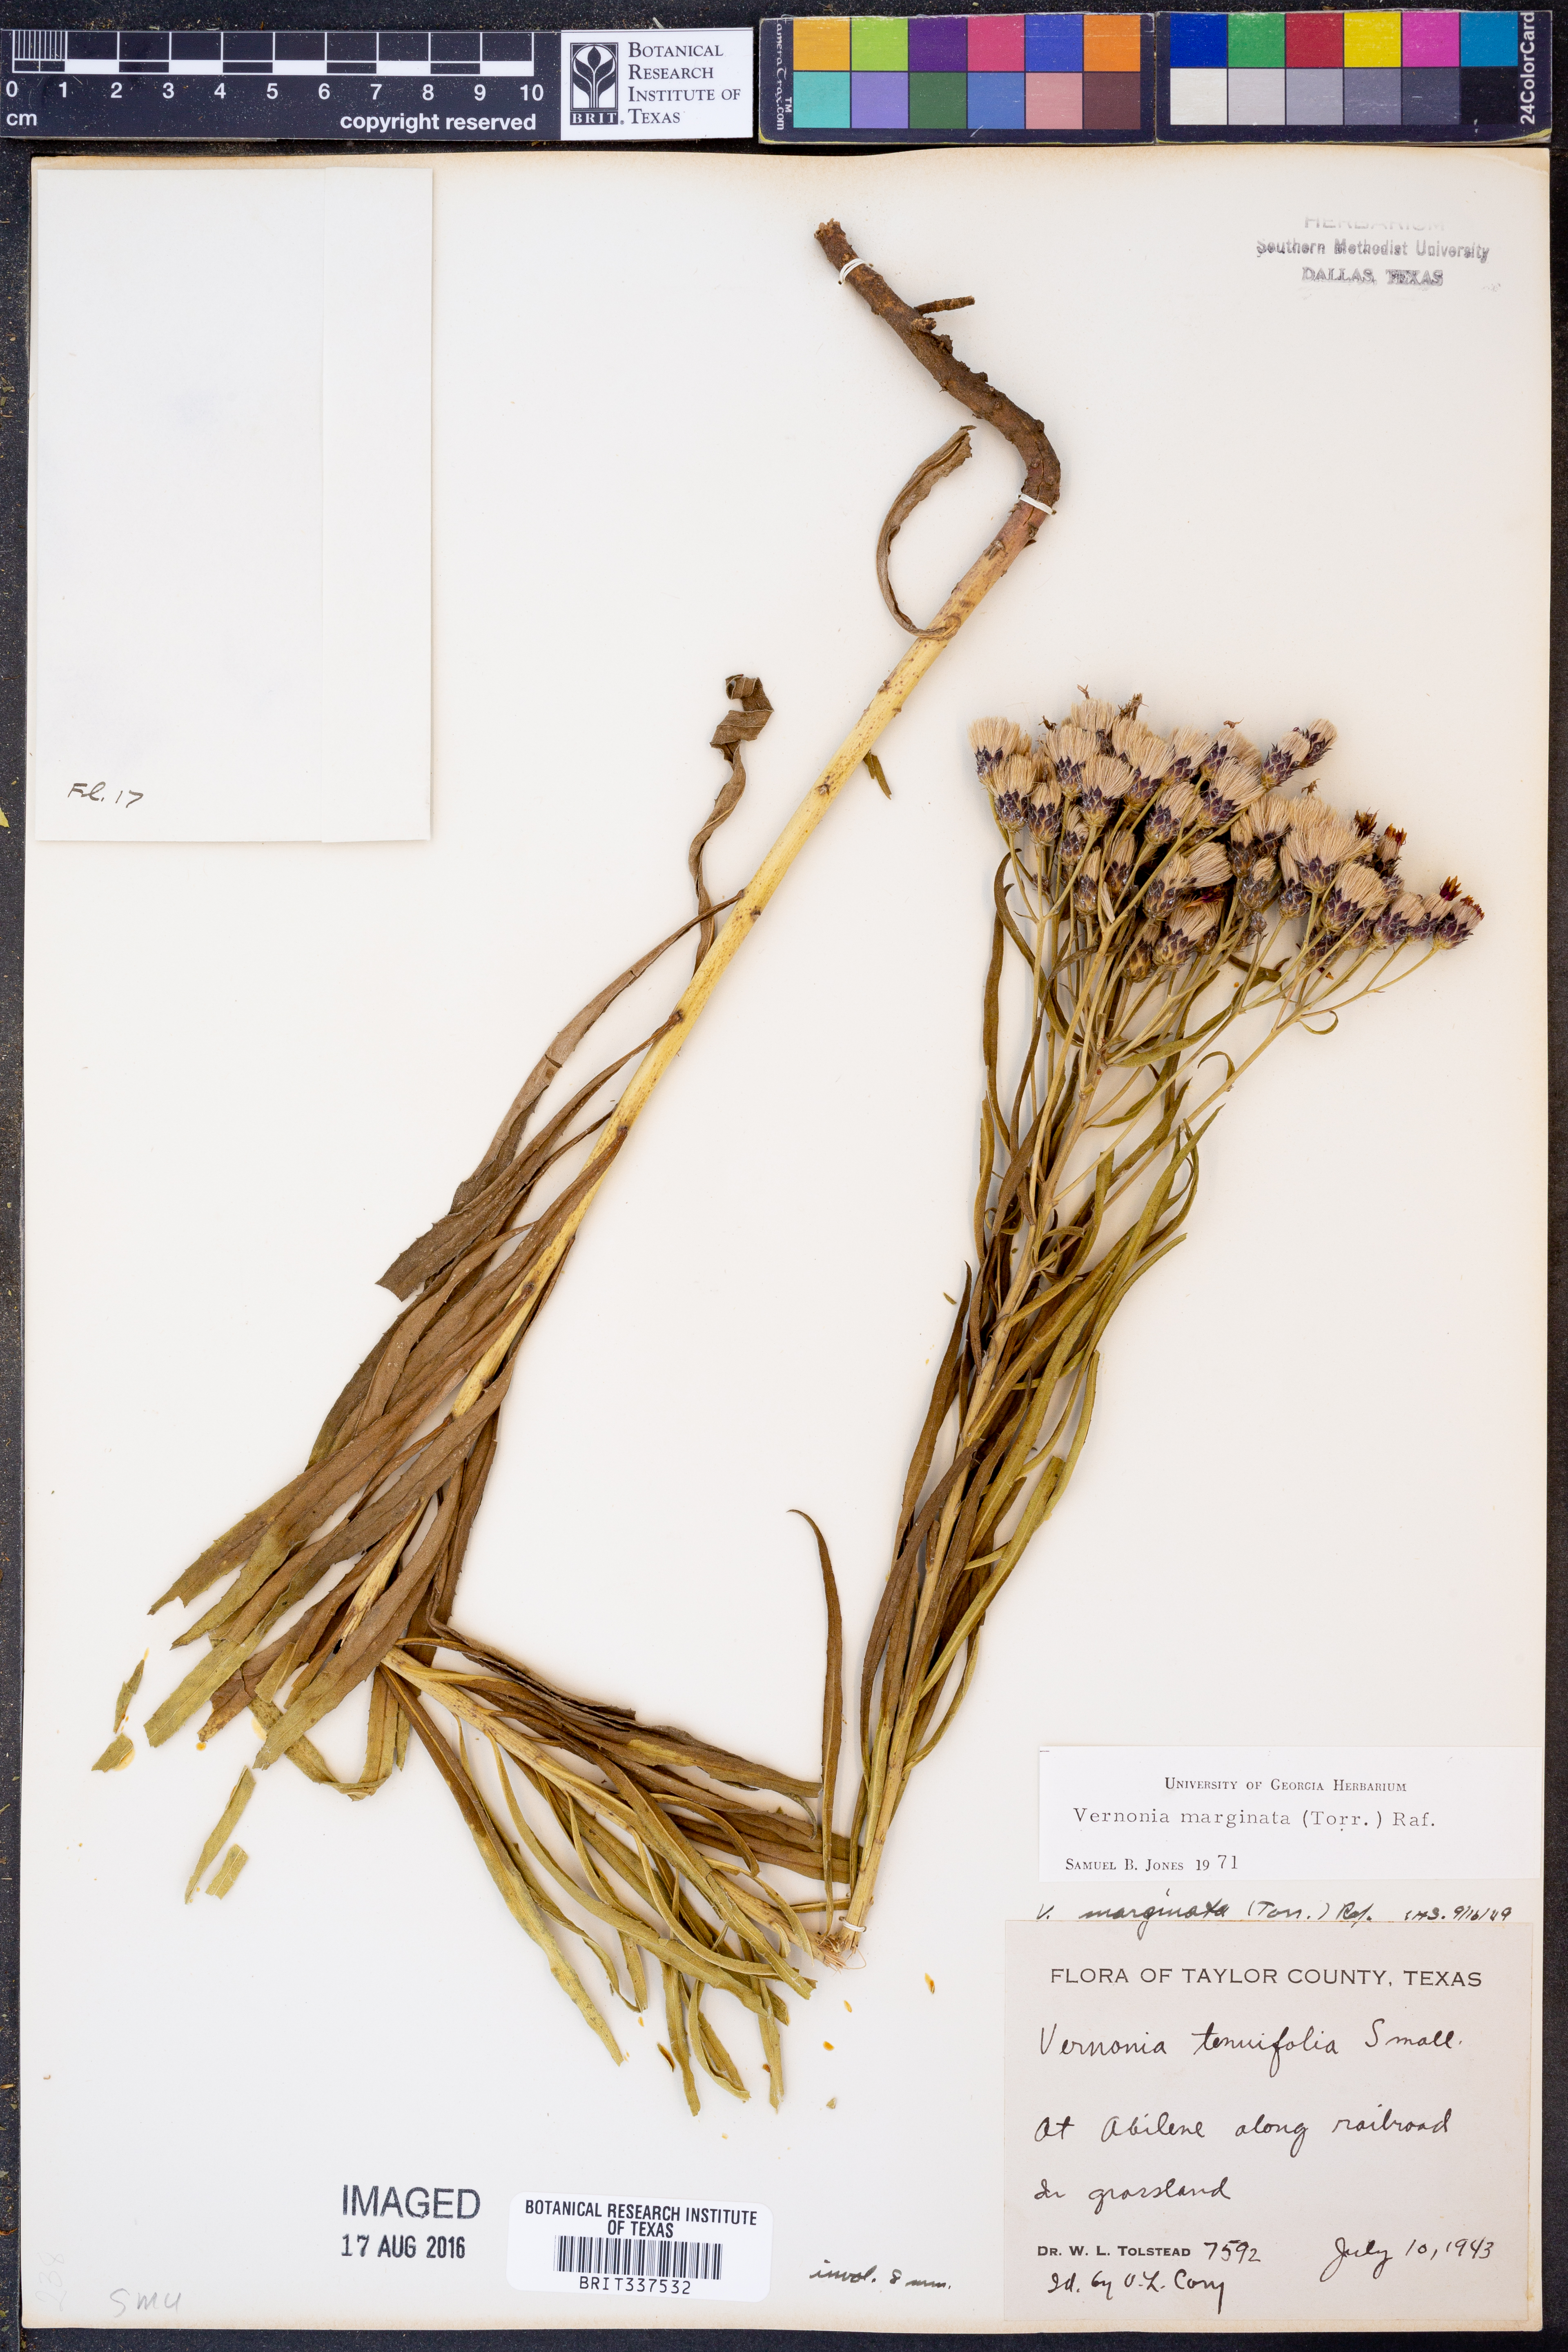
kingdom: Plantae
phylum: Tracheophyta
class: Magnoliopsida
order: Asterales
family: Asteraceae
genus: Vernonia
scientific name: Vernonia marginata
